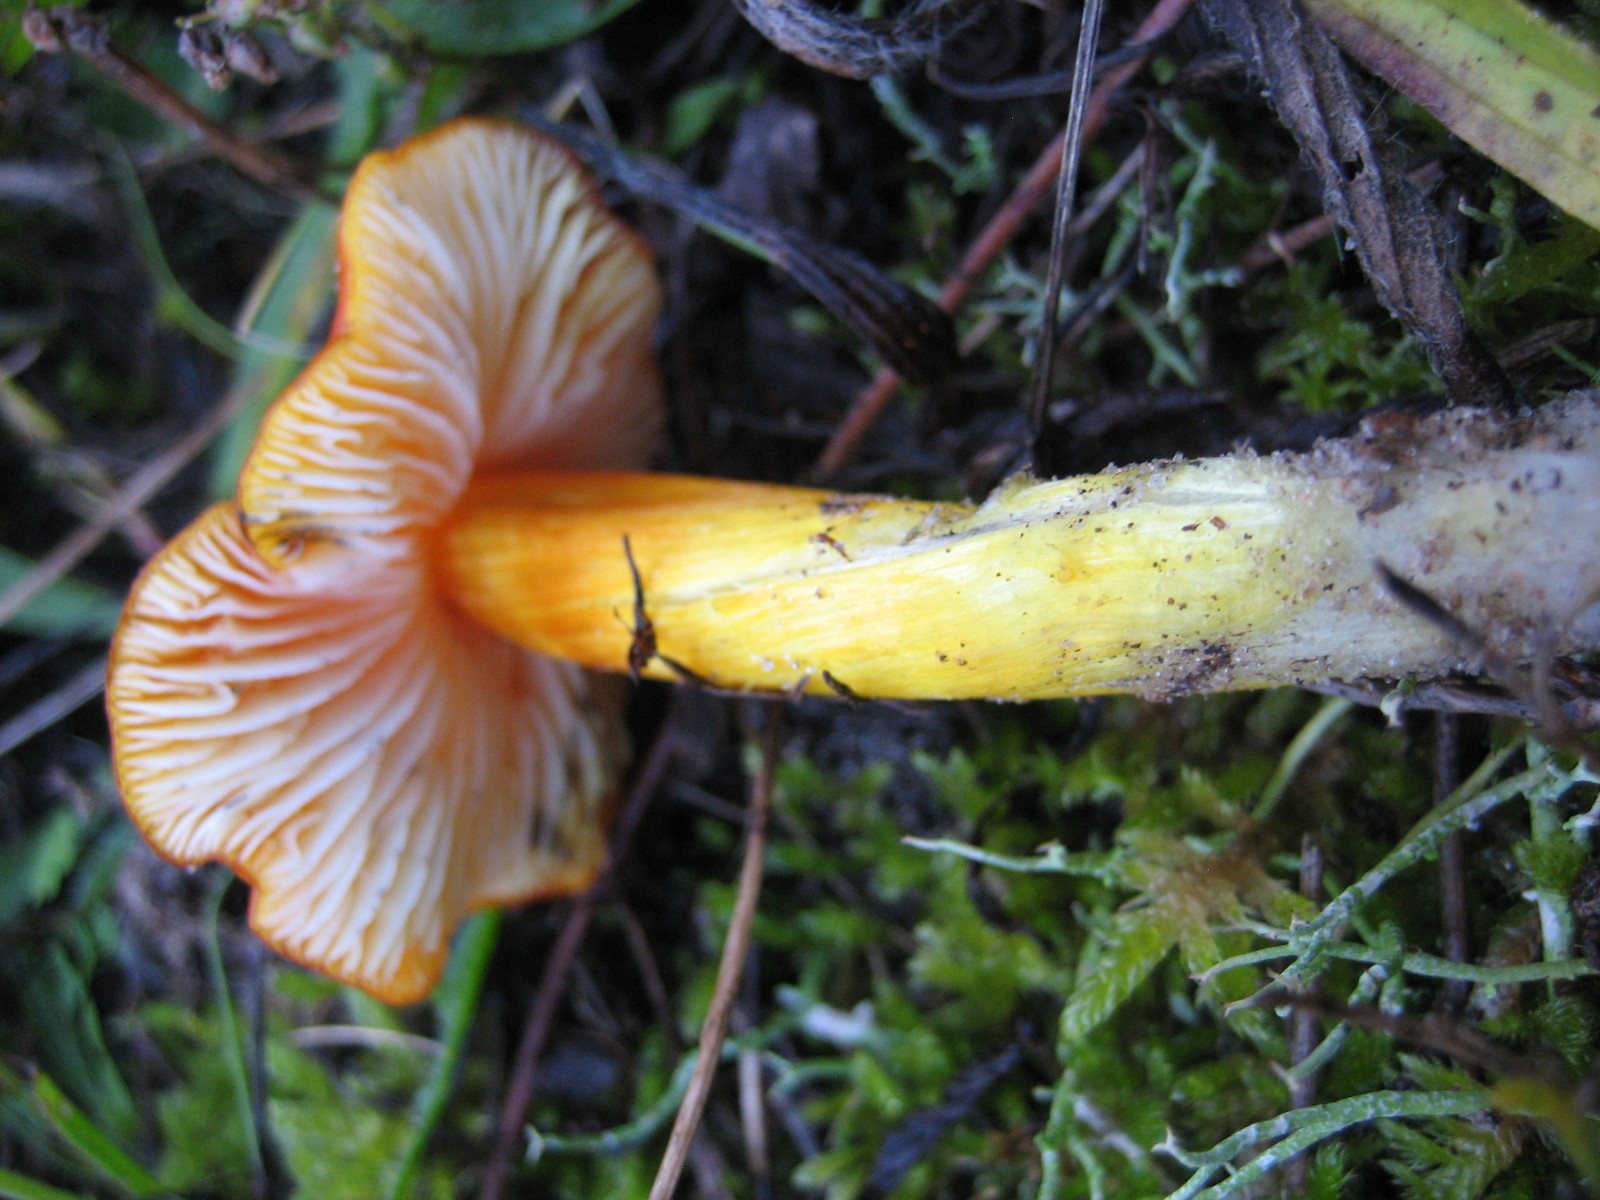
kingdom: Fungi
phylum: Basidiomycota
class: Agaricomycetes
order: Agaricales
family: Hygrophoraceae
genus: Hygrocybe
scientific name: Hygrocybe conica
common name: kegle-vokshat
